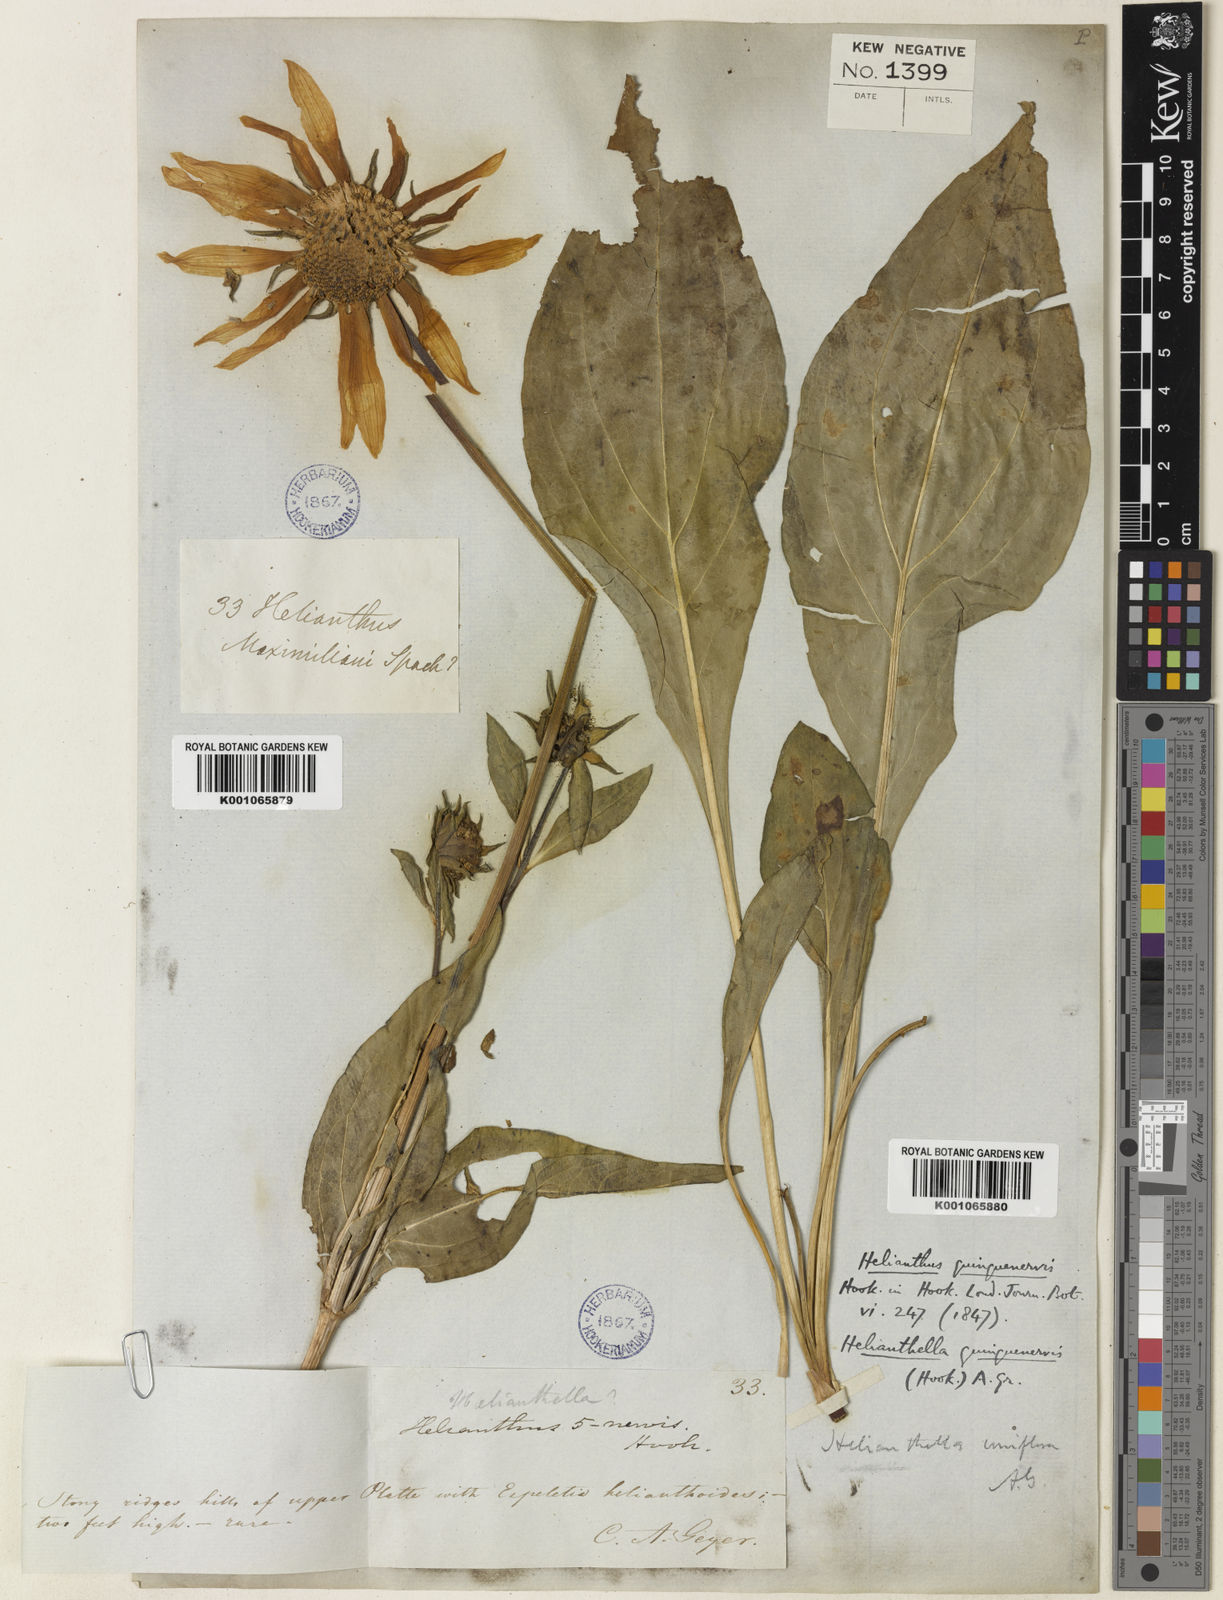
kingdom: Plantae
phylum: Tracheophyta
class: Magnoliopsida
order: Asterales
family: Asteraceae
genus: Helianthella
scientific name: Helianthella quinquenervis
